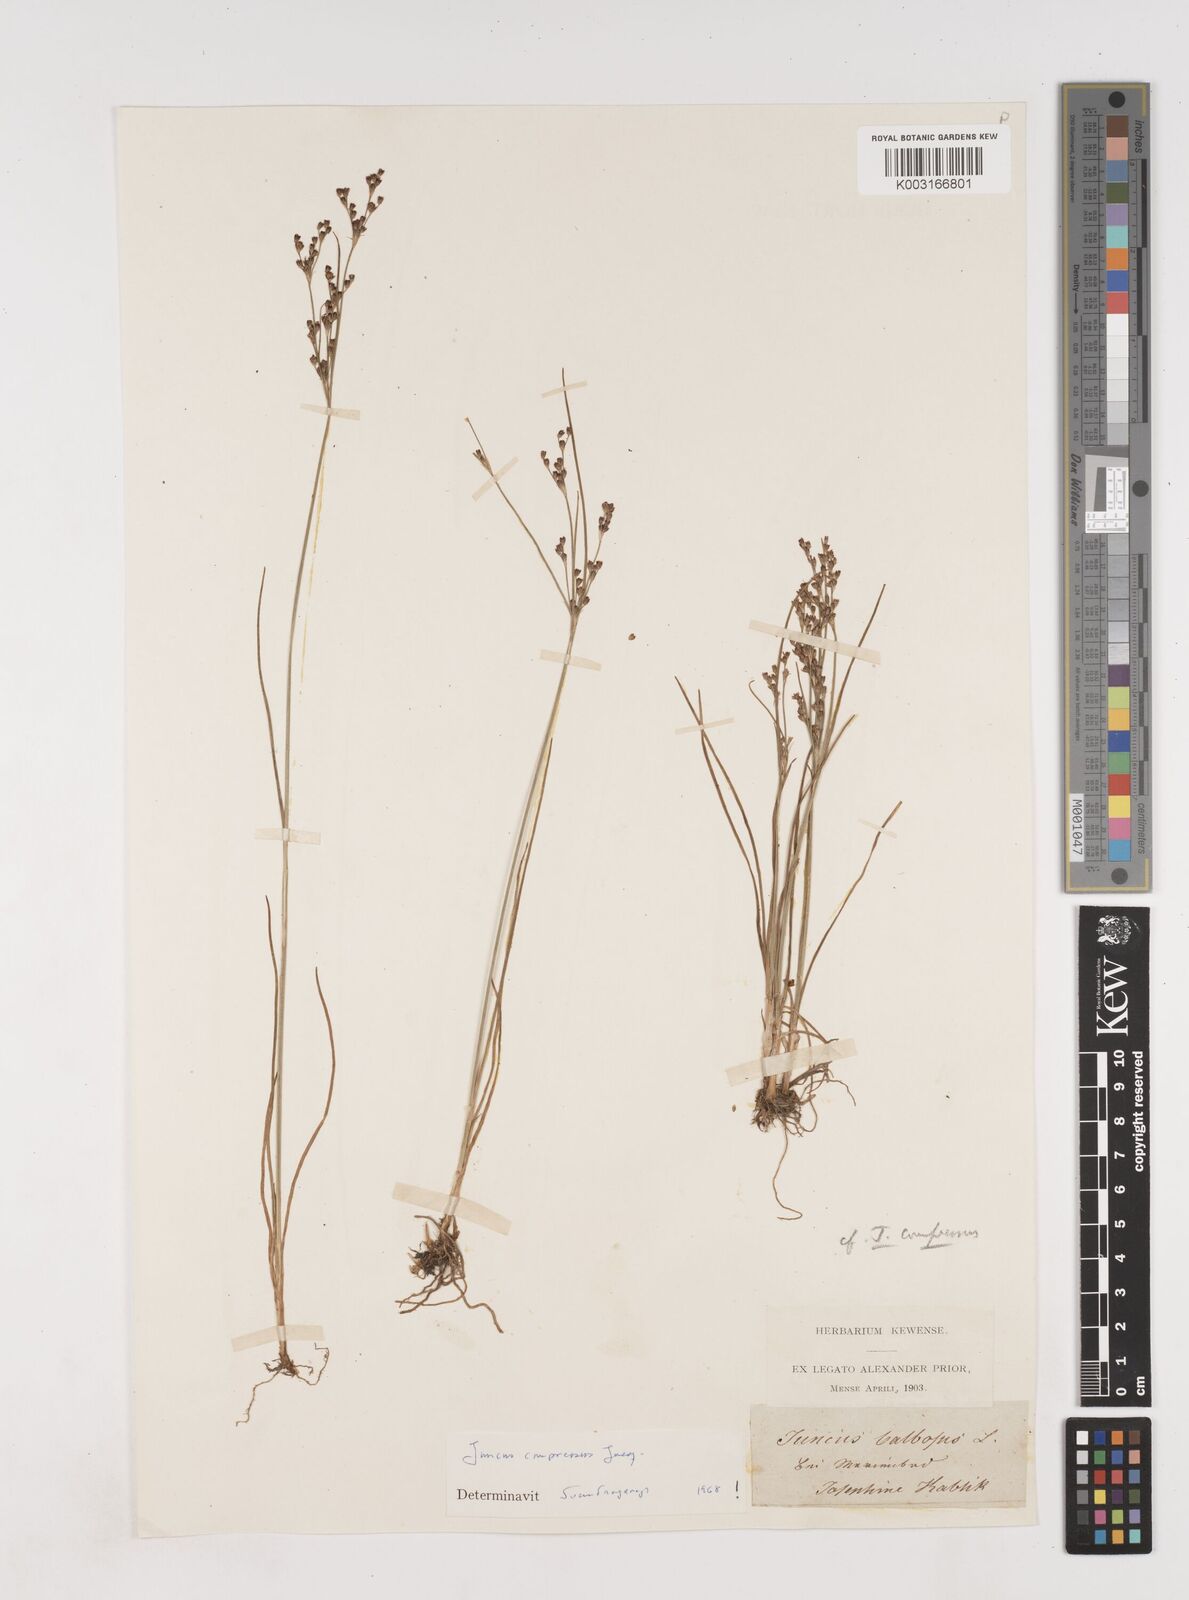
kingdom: Plantae
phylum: Tracheophyta
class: Liliopsida
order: Poales
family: Juncaceae
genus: Juncus
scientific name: Juncus compressus
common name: Round-fruited rush
